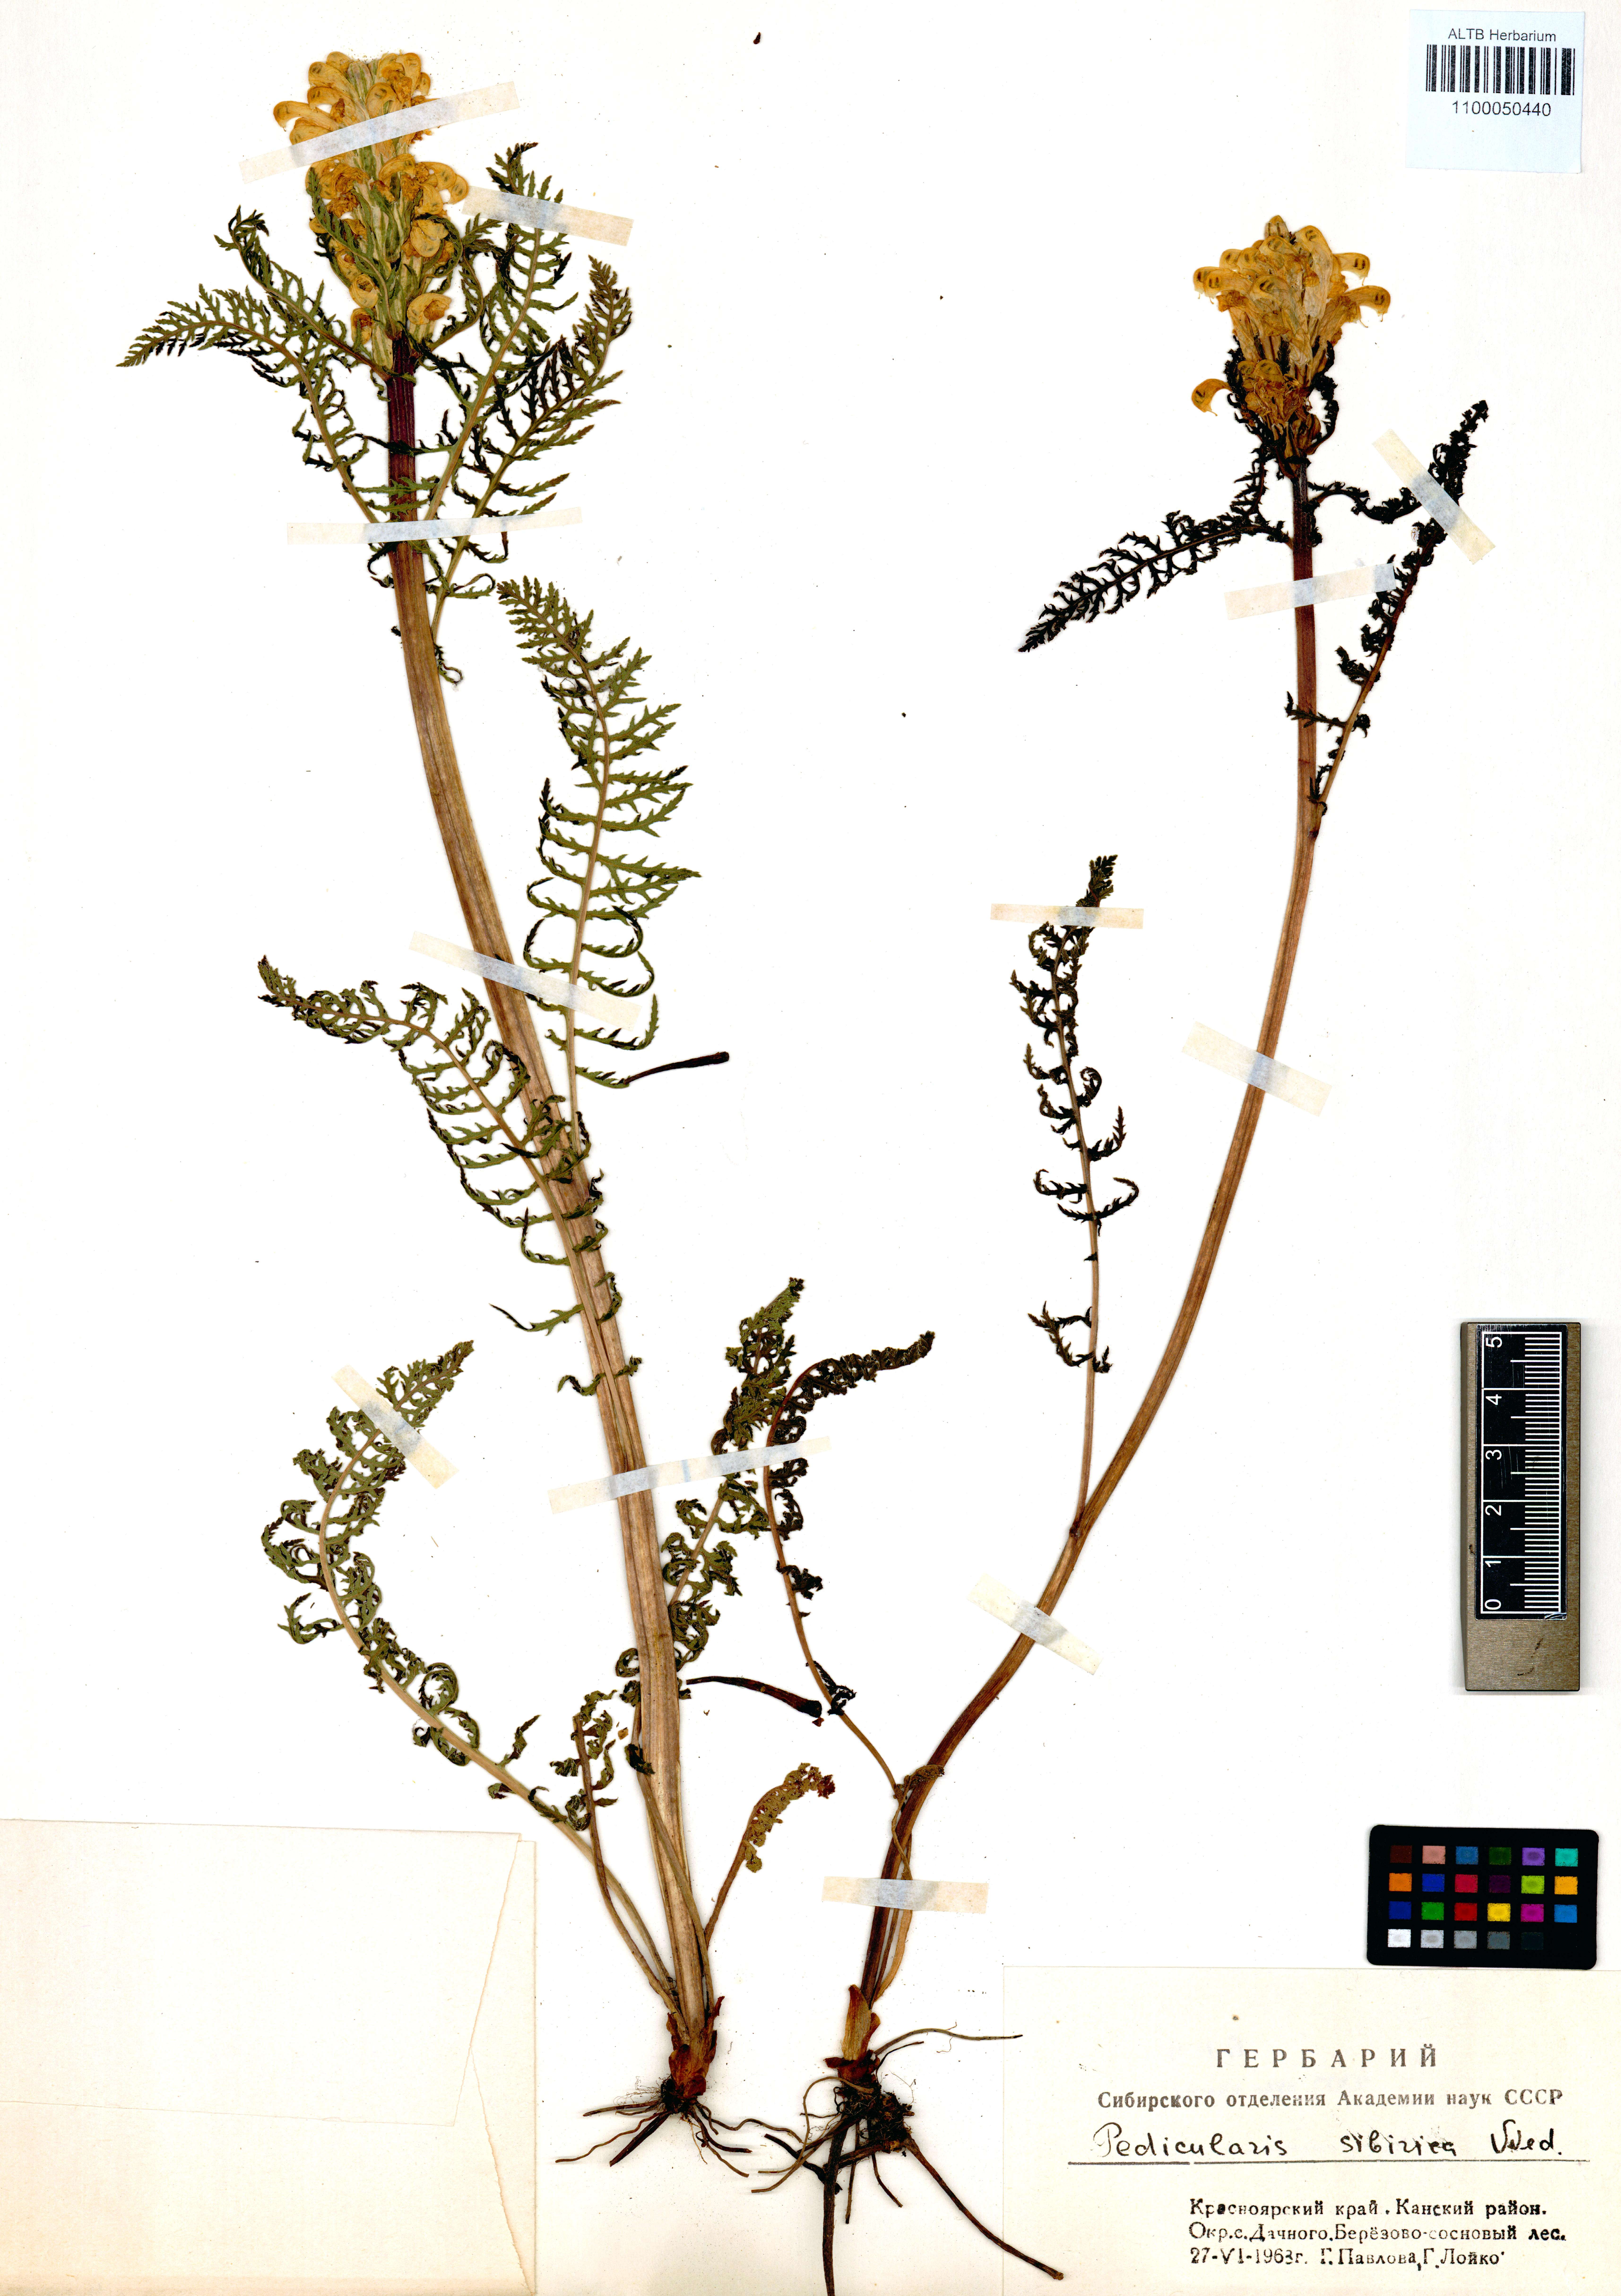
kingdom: Plantae
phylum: Tracheophyta
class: Magnoliopsida
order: Lamiales
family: Orobanchaceae
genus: Pedicularis
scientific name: Pedicularis sibirica
